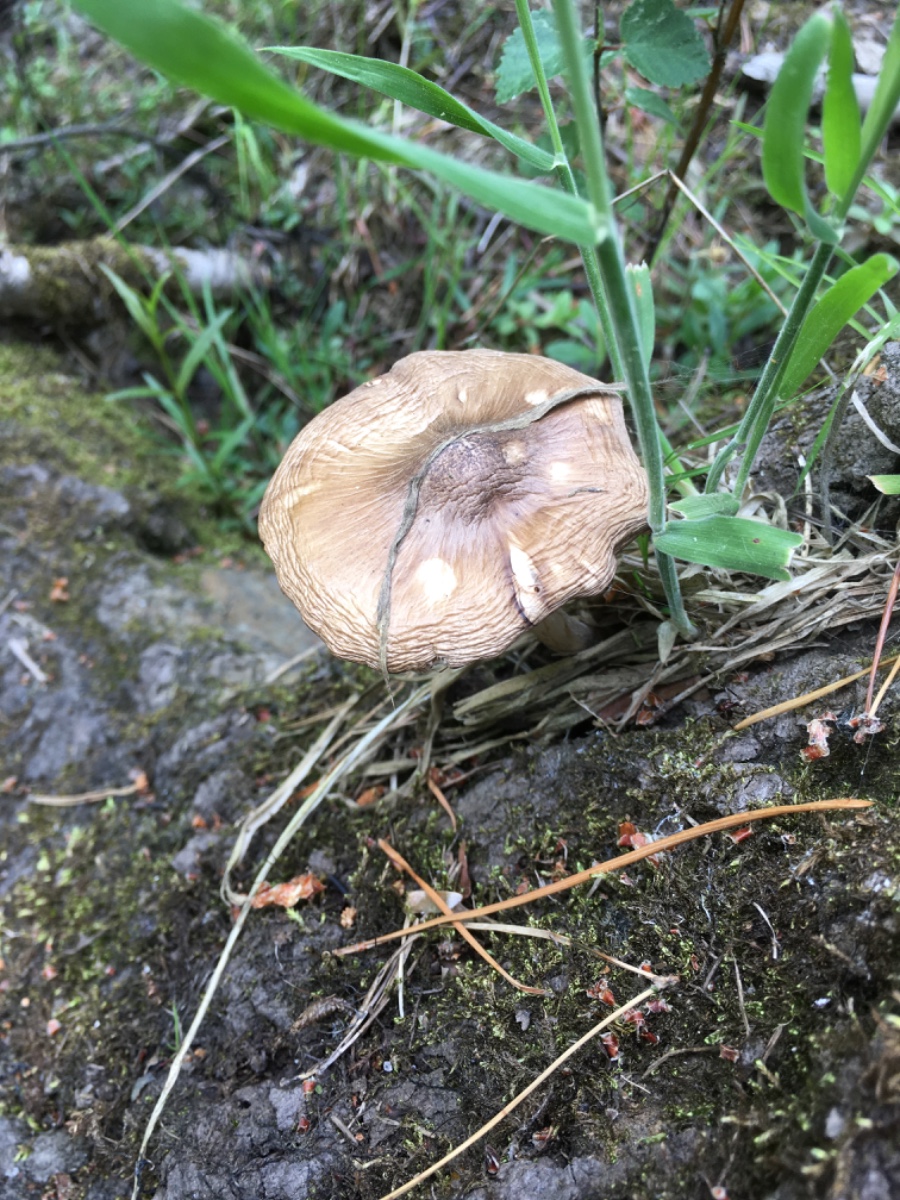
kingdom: Fungi
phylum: Basidiomycota
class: Agaricomycetes
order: Agaricales
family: Pluteaceae
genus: Pluteus
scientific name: Pluteus
